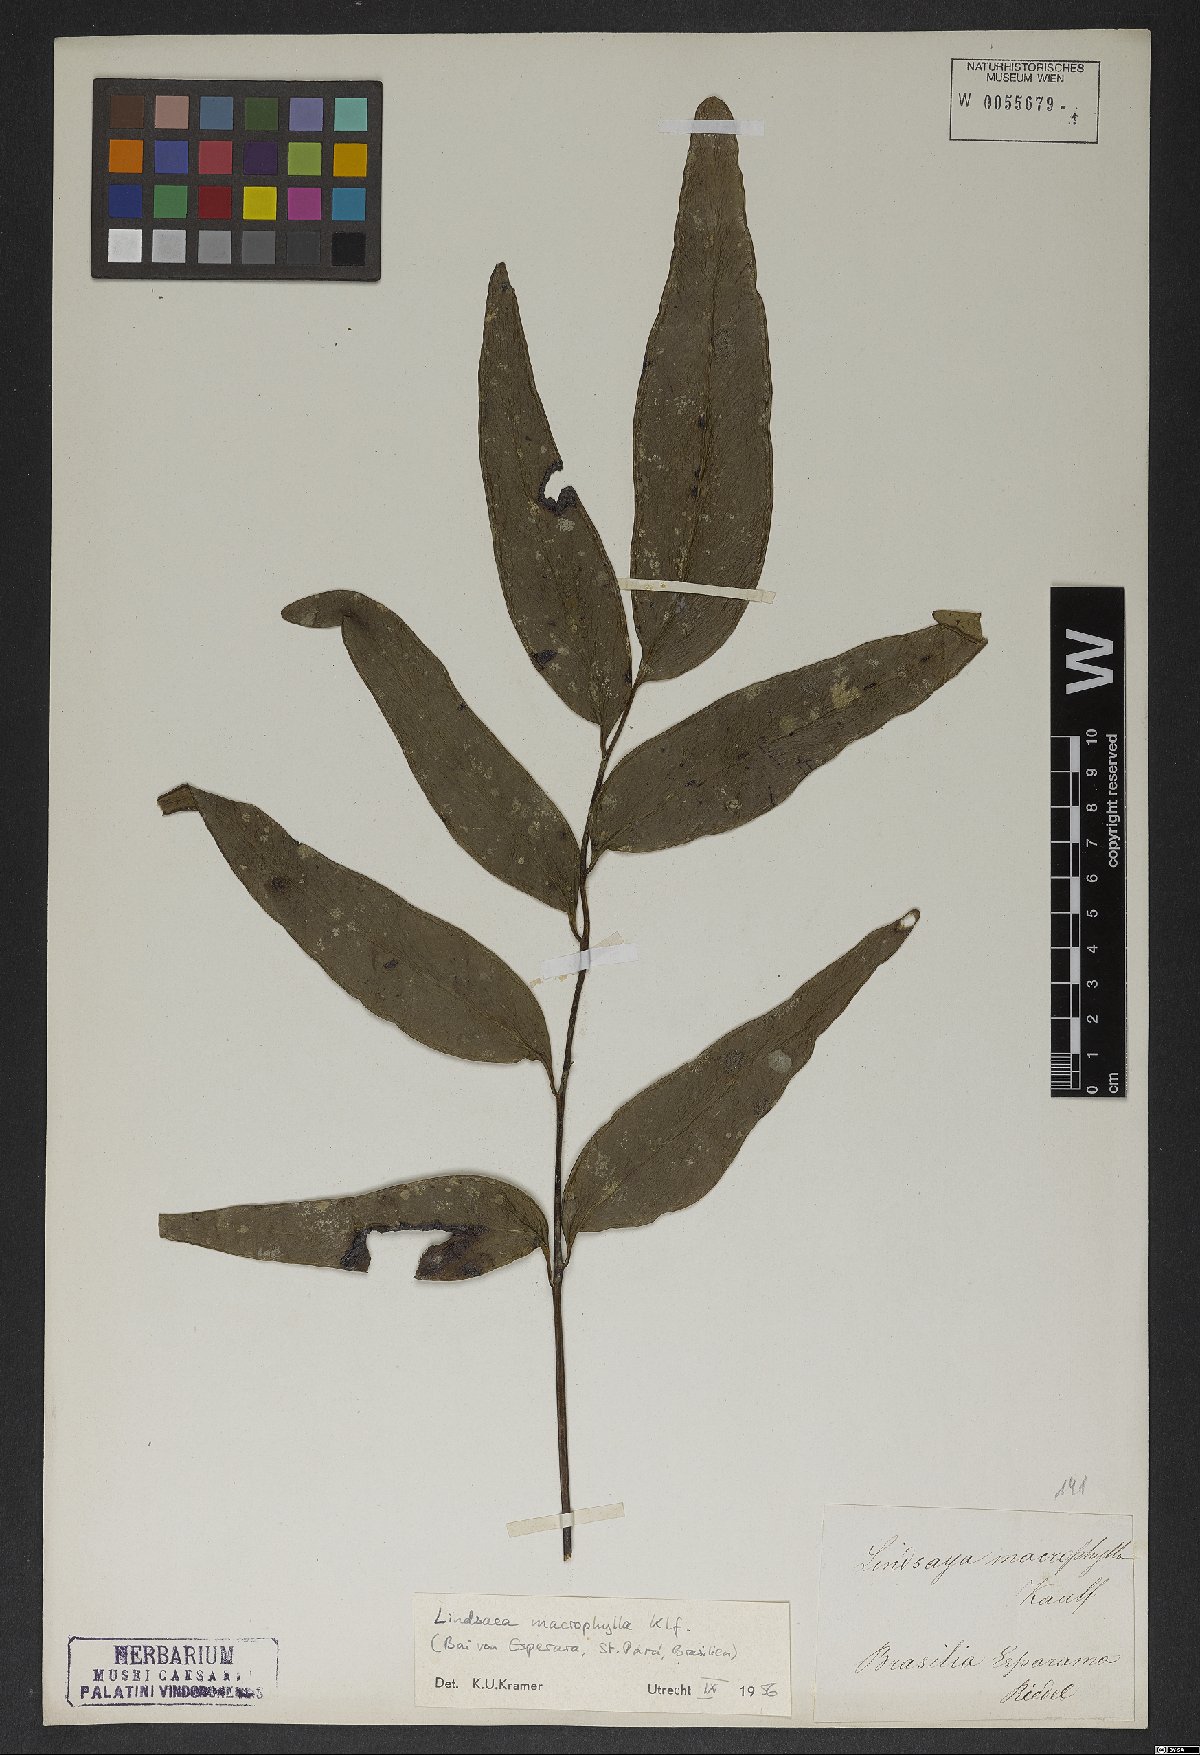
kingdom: Plantae
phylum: Tracheophyta
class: Polypodiopsida
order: Polypodiales
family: Lindsaeaceae
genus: Lindsaea
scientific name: Lindsaea macrophylla
